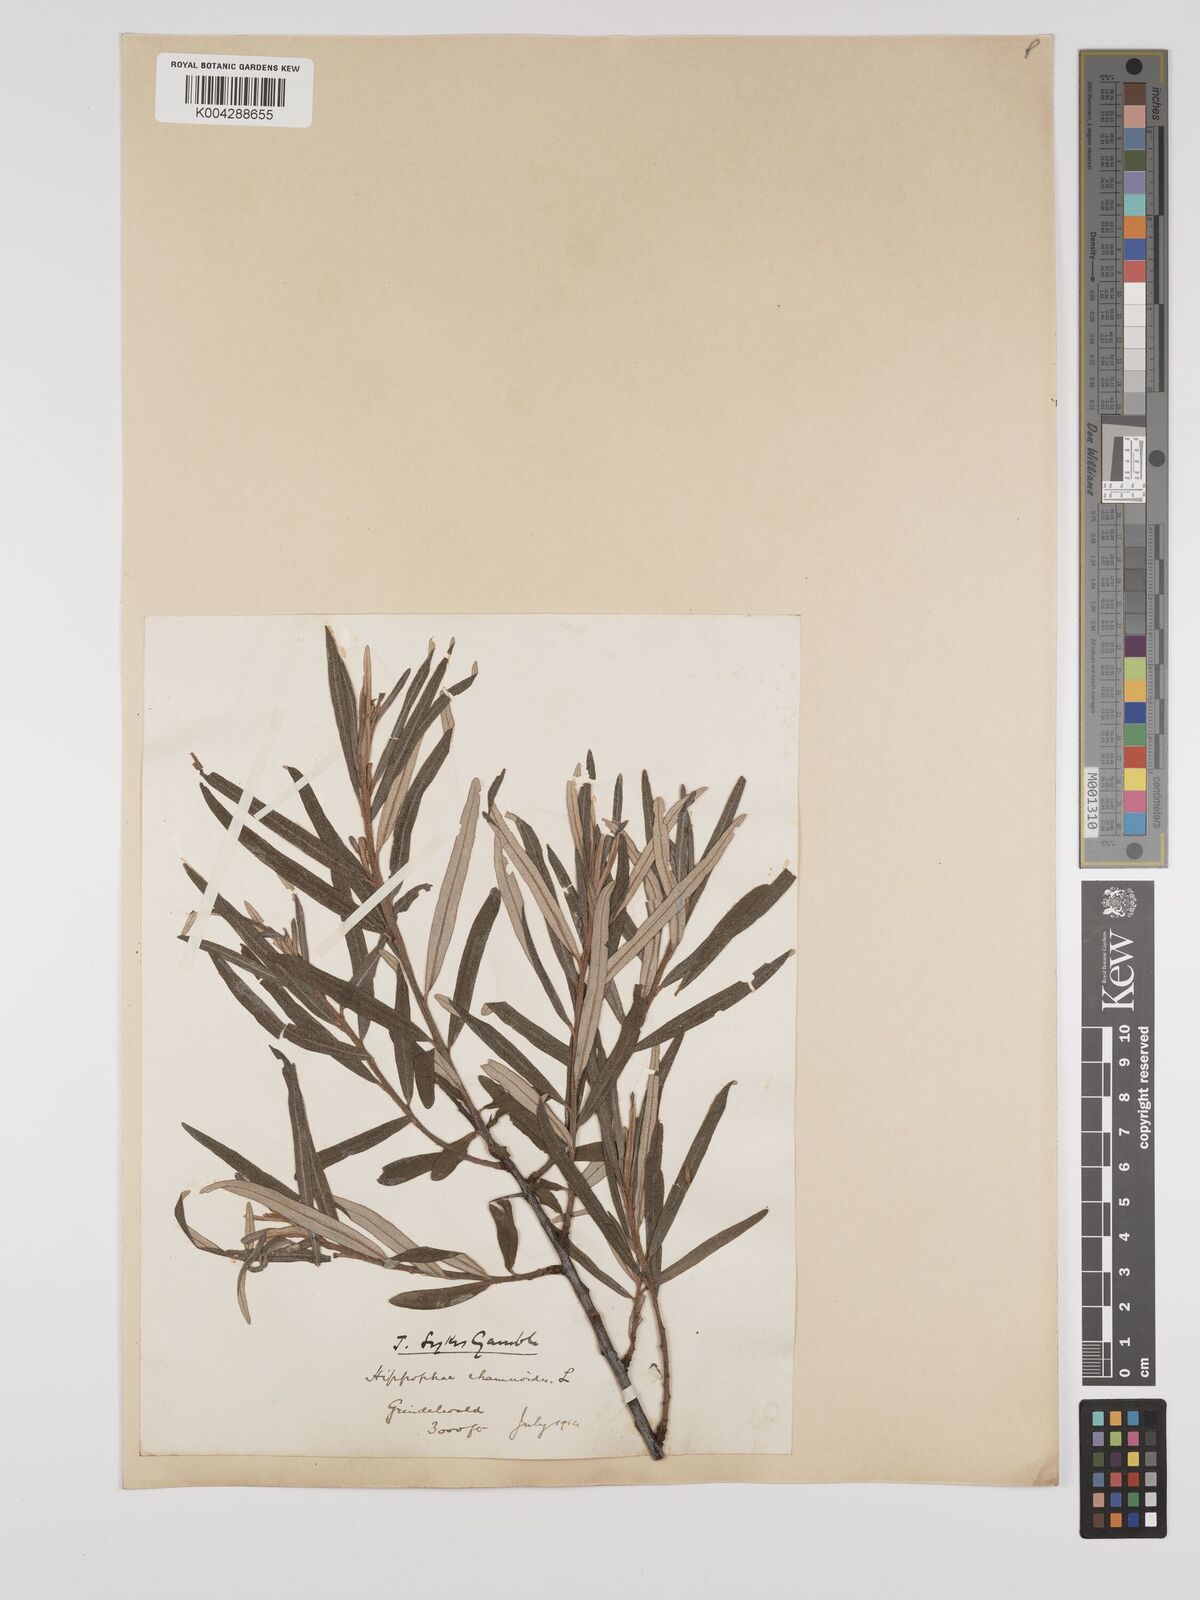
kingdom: Plantae
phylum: Tracheophyta
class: Magnoliopsida
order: Rosales
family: Elaeagnaceae
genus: Hippophae
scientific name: Hippophae rhamnoides
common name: Sea-buckthorn
